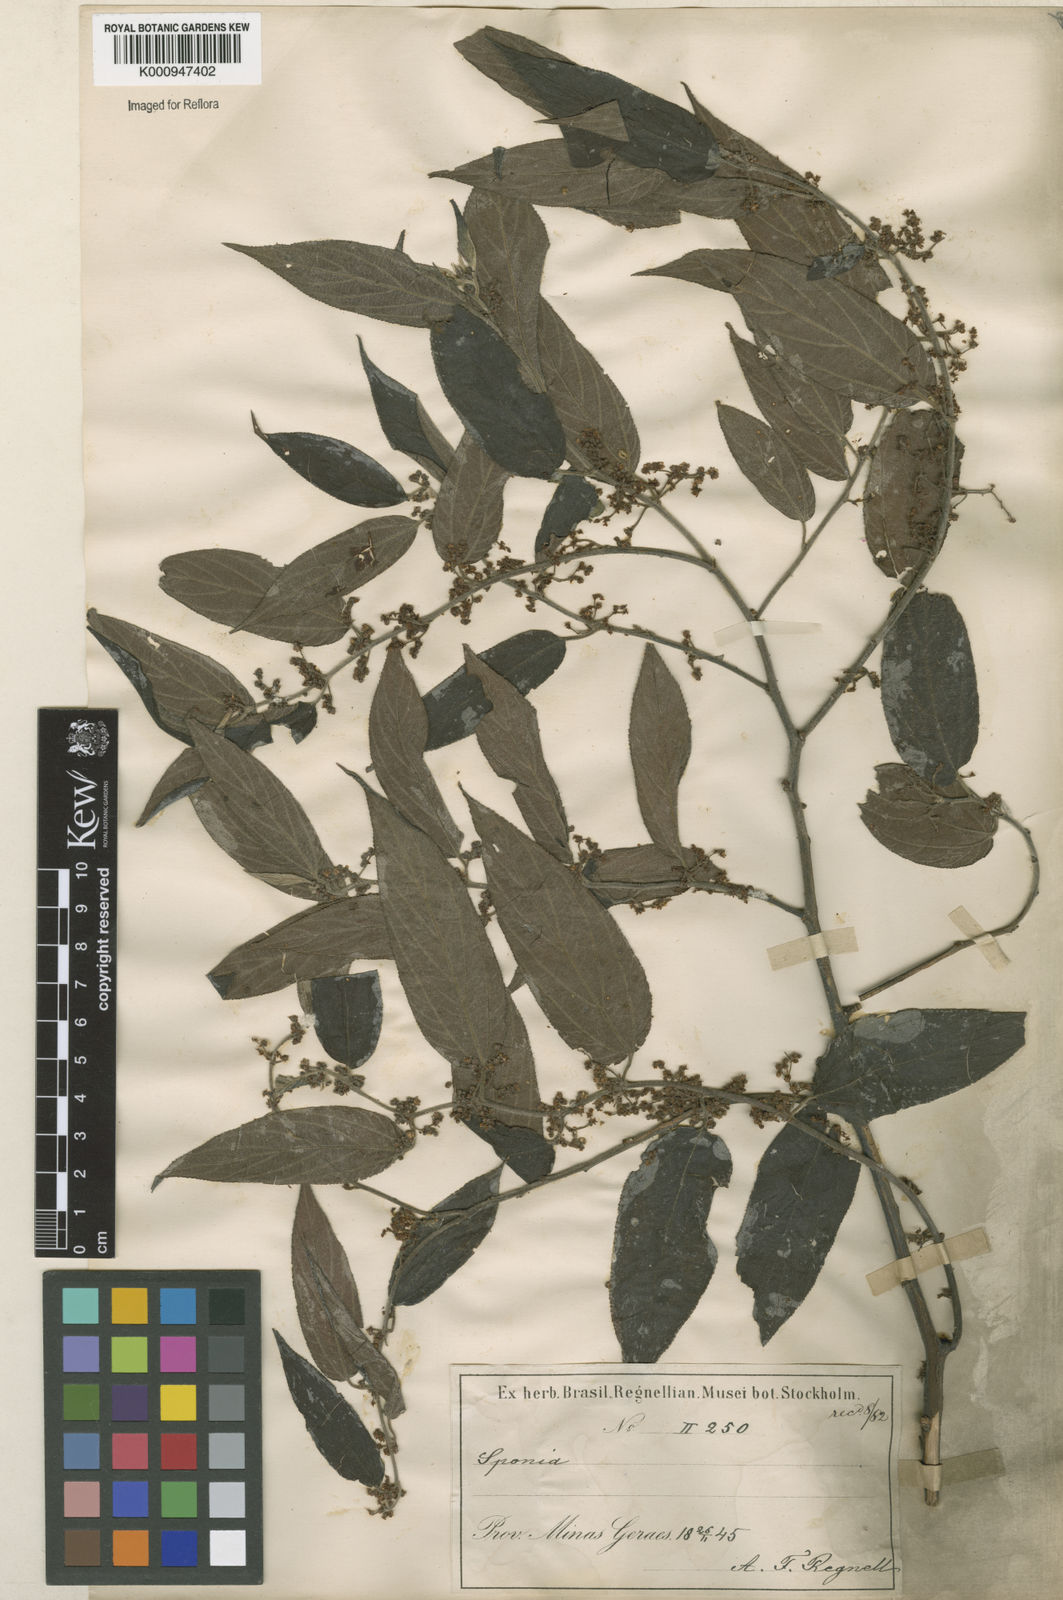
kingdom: Plantae
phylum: Tracheophyta
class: Magnoliopsida
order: Rosales
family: Cannabaceae
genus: Trema
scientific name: Trema micranthum
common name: Jamaican nettletree
